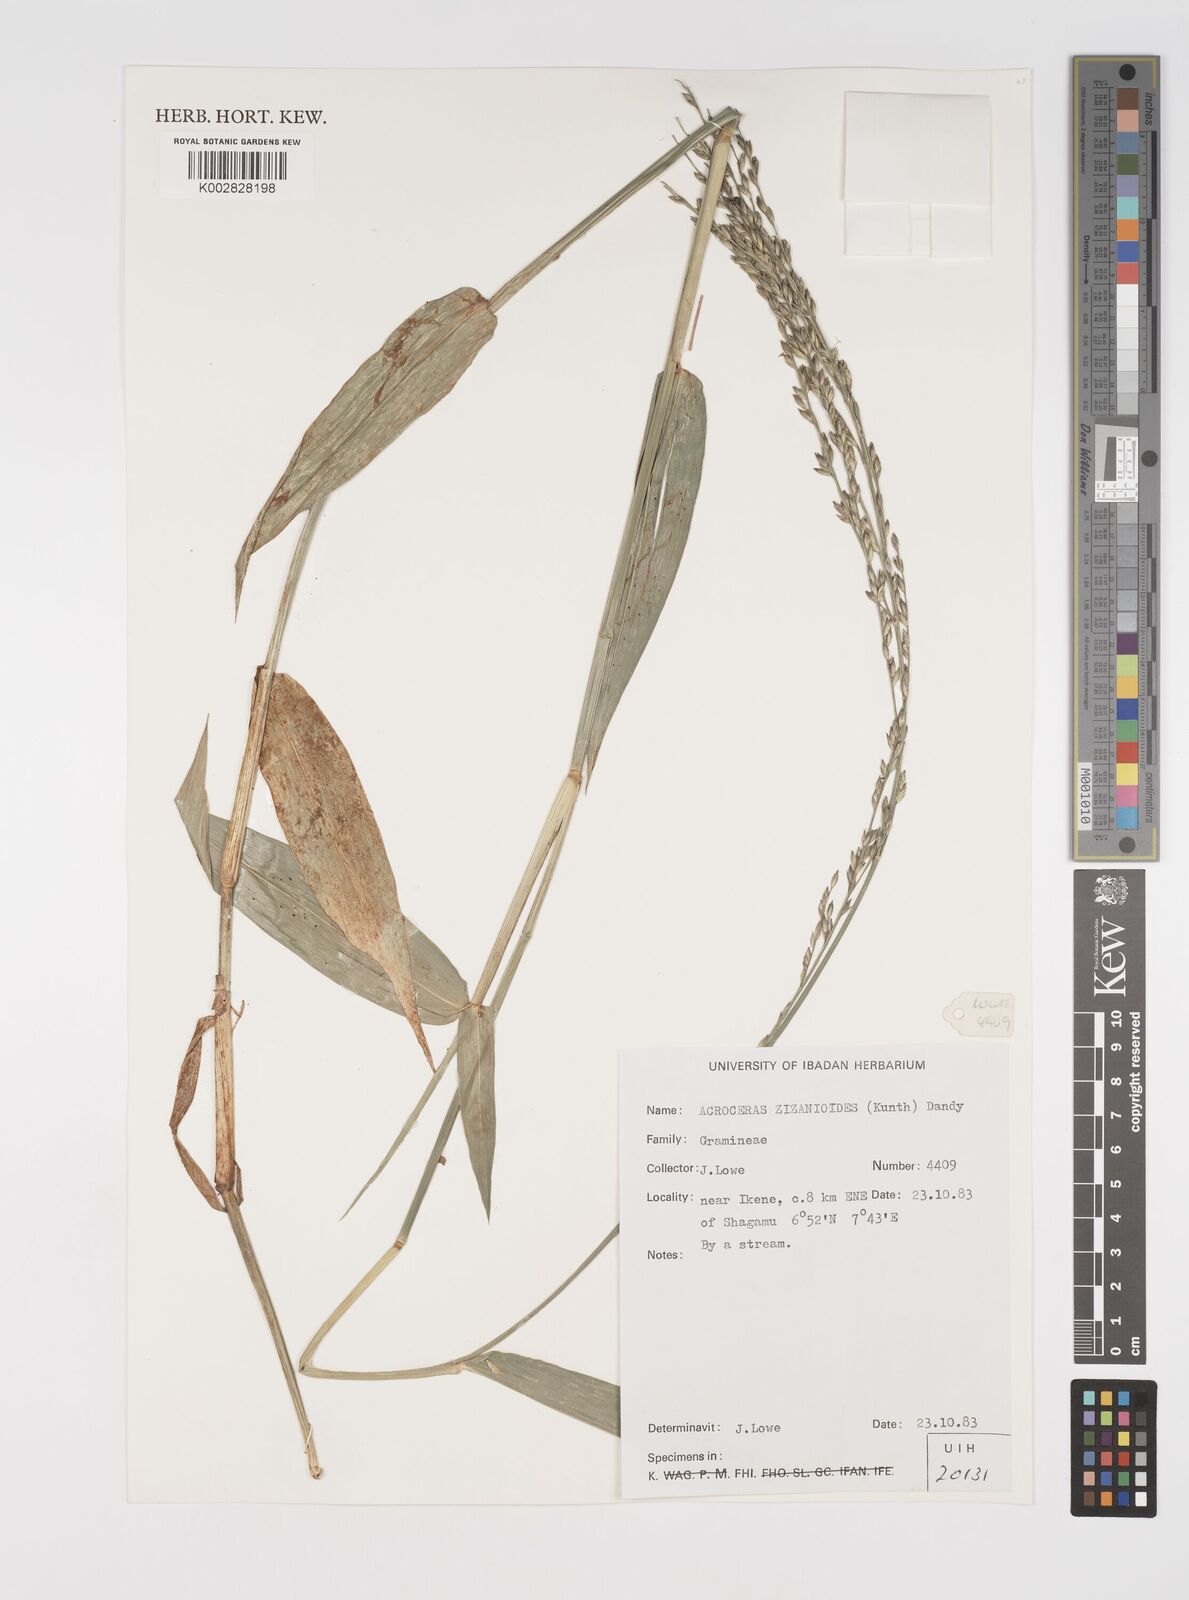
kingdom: Plantae
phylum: Tracheophyta
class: Liliopsida
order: Poales
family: Poaceae
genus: Acroceras
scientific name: Acroceras zizanioides
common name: Oat grass
